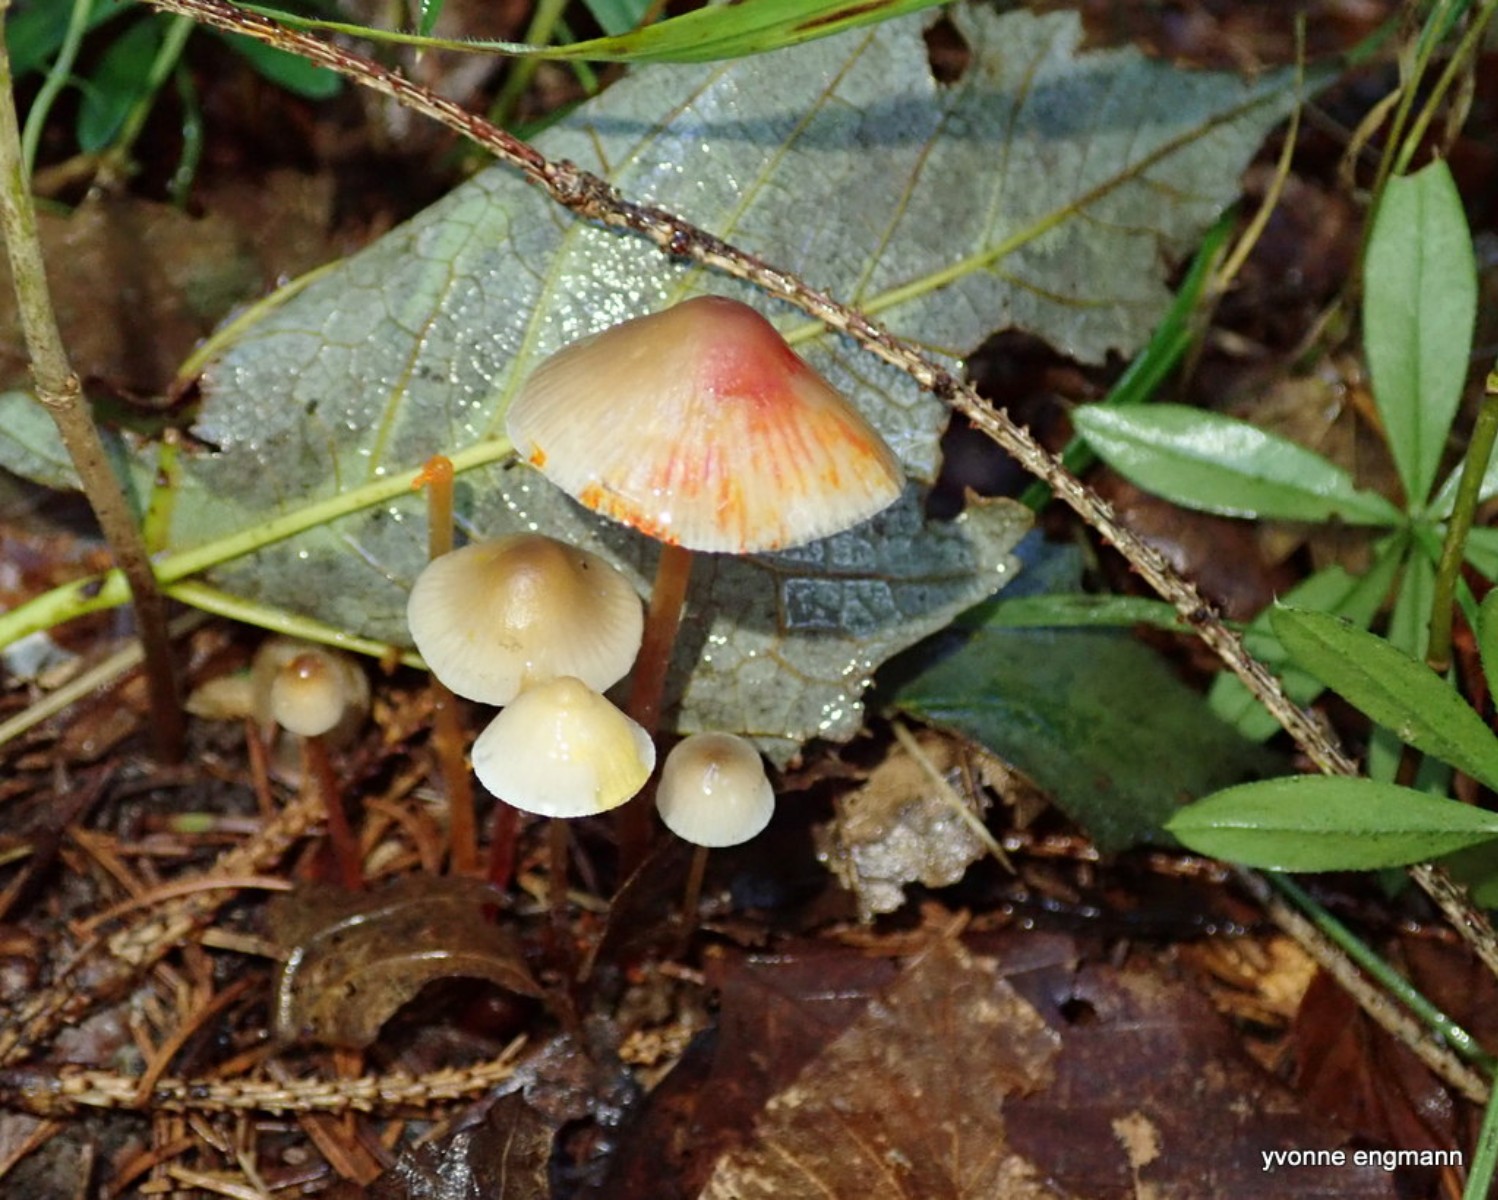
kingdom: Fungi
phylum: Basidiomycota
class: Agaricomycetes
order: Agaricales
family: Mycenaceae
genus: Mycena
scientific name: Mycena crocata
